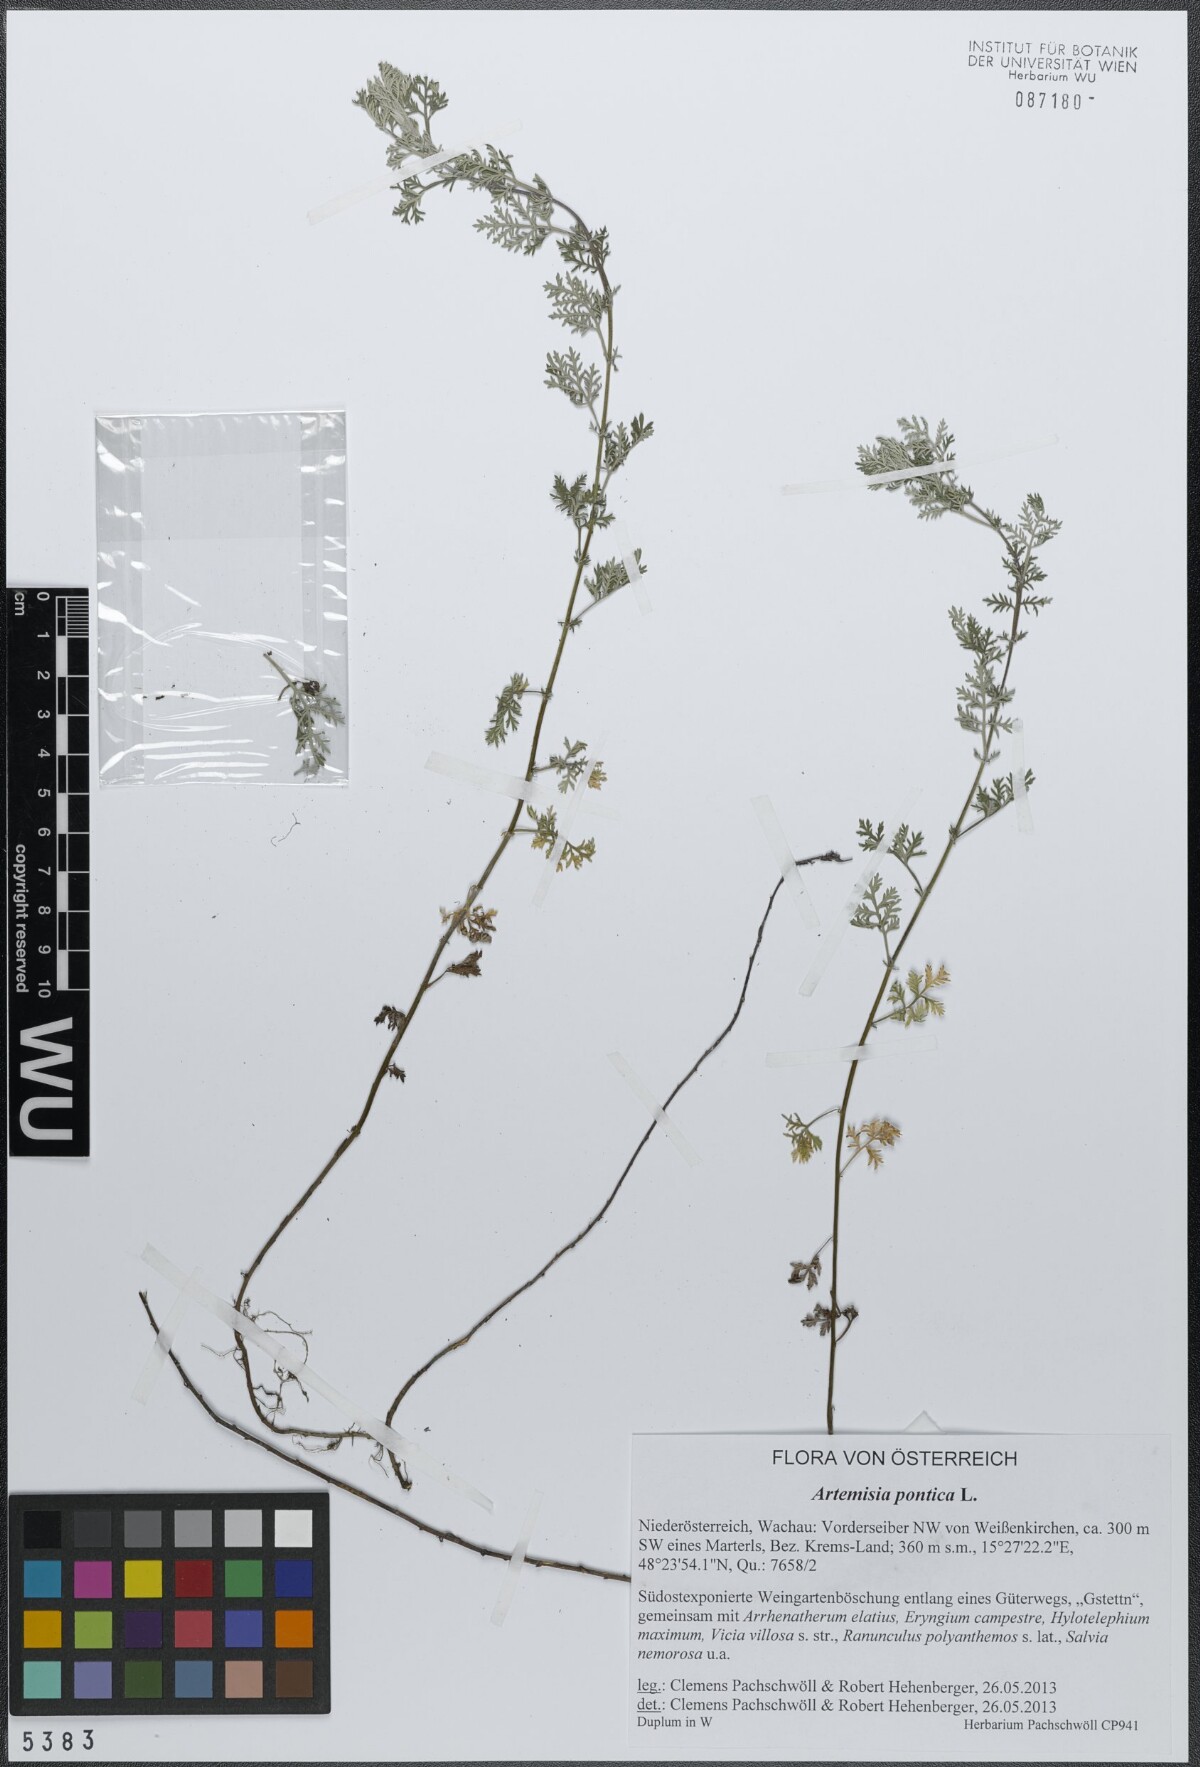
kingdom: Plantae
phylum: Tracheophyta
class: Magnoliopsida
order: Asterales
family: Asteraceae
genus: Artemisia
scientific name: Artemisia pontica
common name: Roman wormwood
